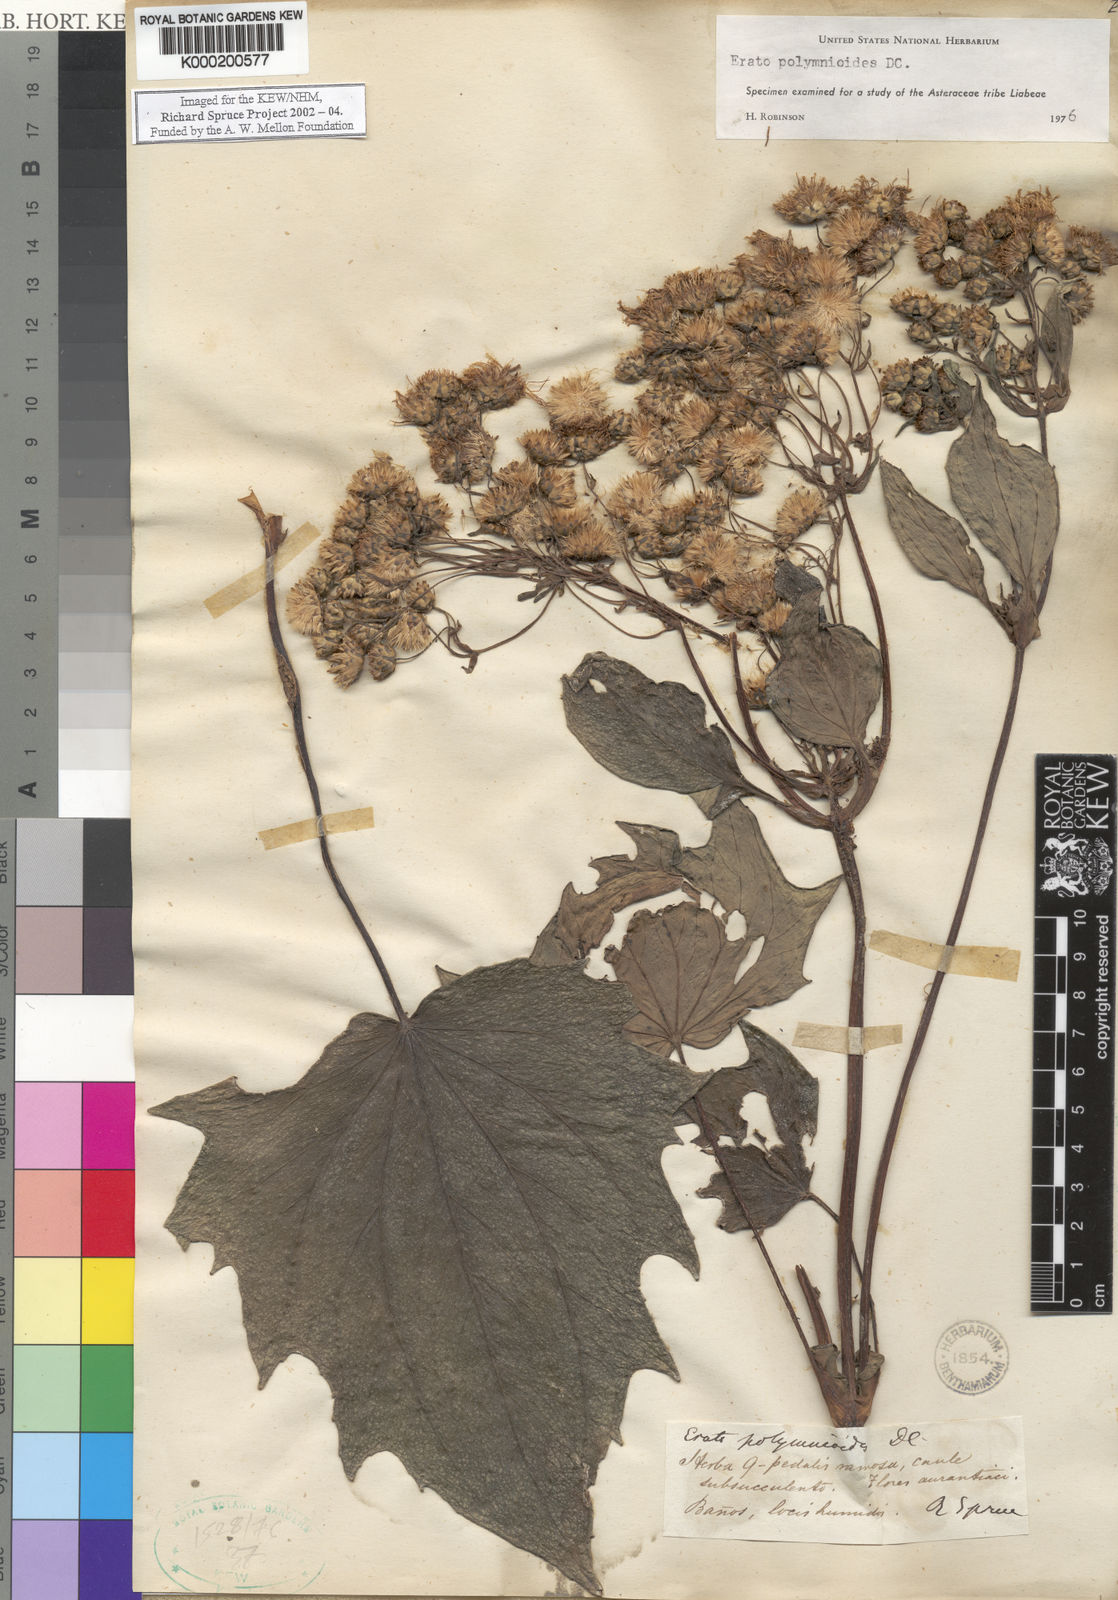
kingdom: Plantae
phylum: Tracheophyta
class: Magnoliopsida
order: Asterales
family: Asteraceae
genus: Erato
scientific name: Erato
